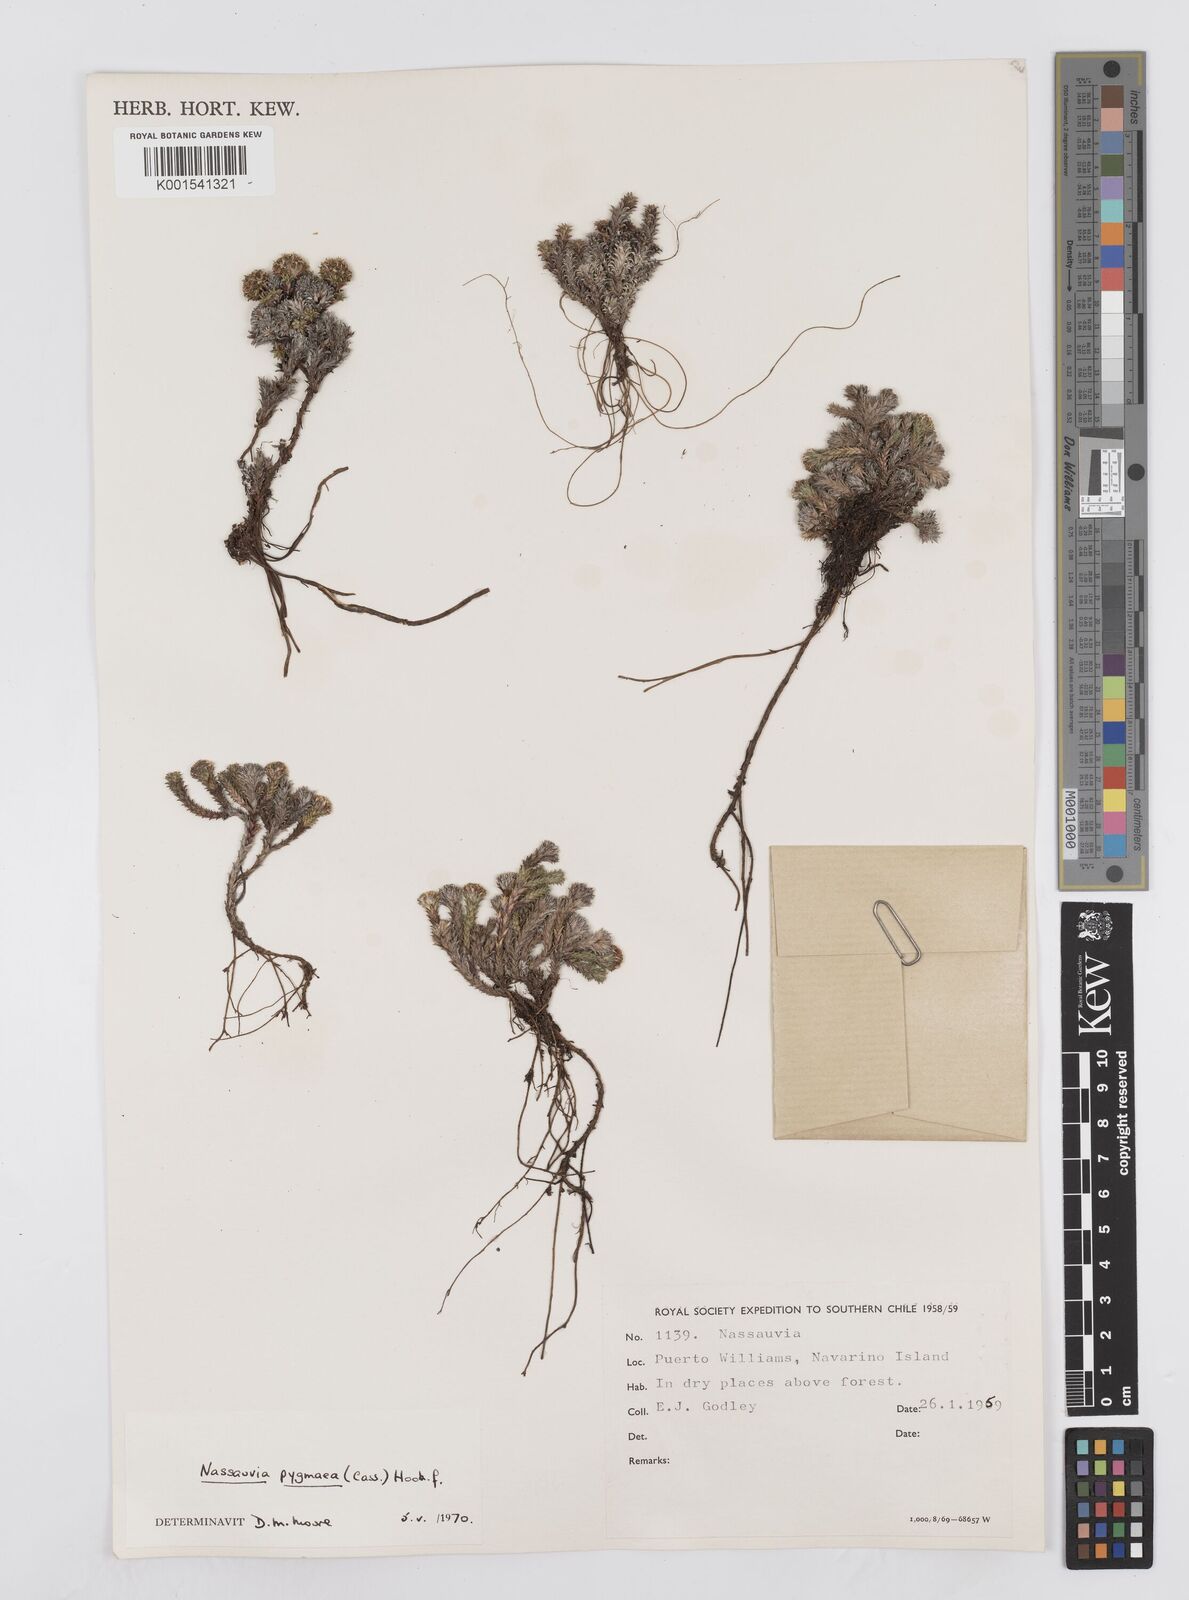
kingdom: Plantae
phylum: Tracheophyta
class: Magnoliopsida
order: Asterales
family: Asteraceae
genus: Nassauvia
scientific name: Nassauvia pygmaea
